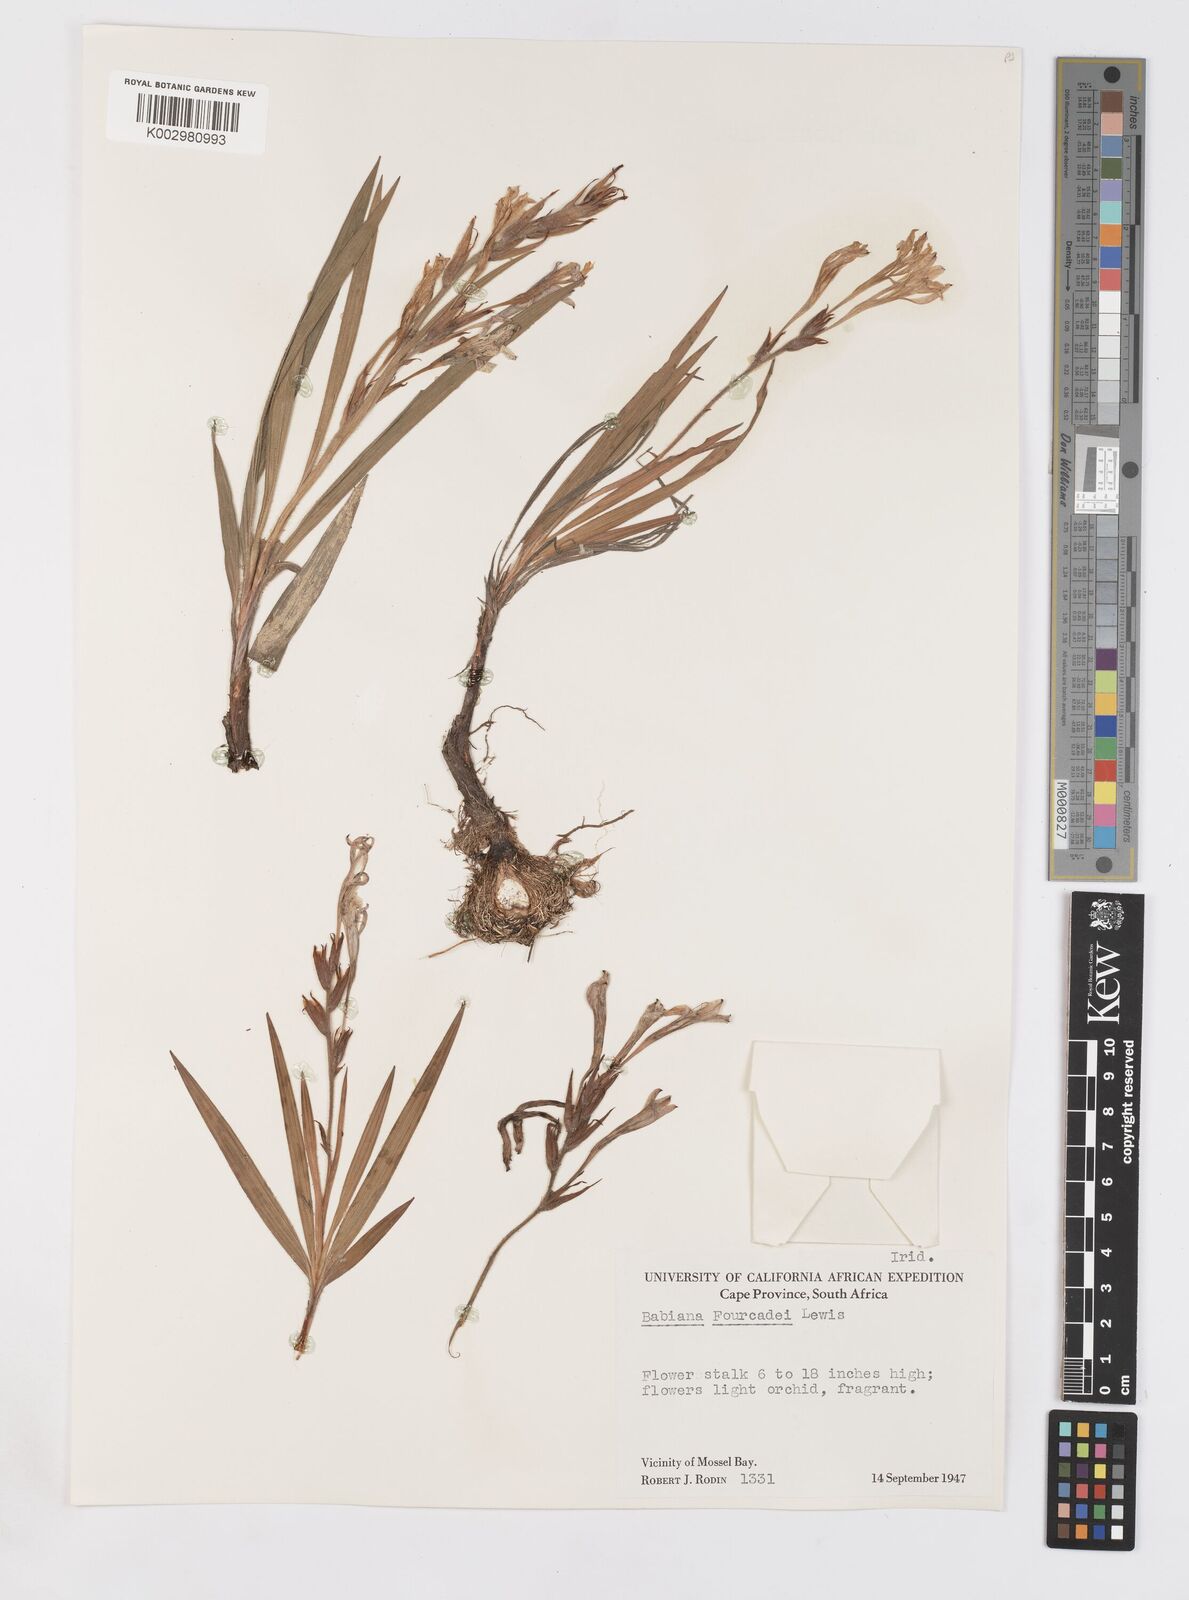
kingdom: Plantae
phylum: Tracheophyta
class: Liliopsida
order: Asparagales
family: Iridaceae
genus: Babiana
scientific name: Babiana fourcadei
